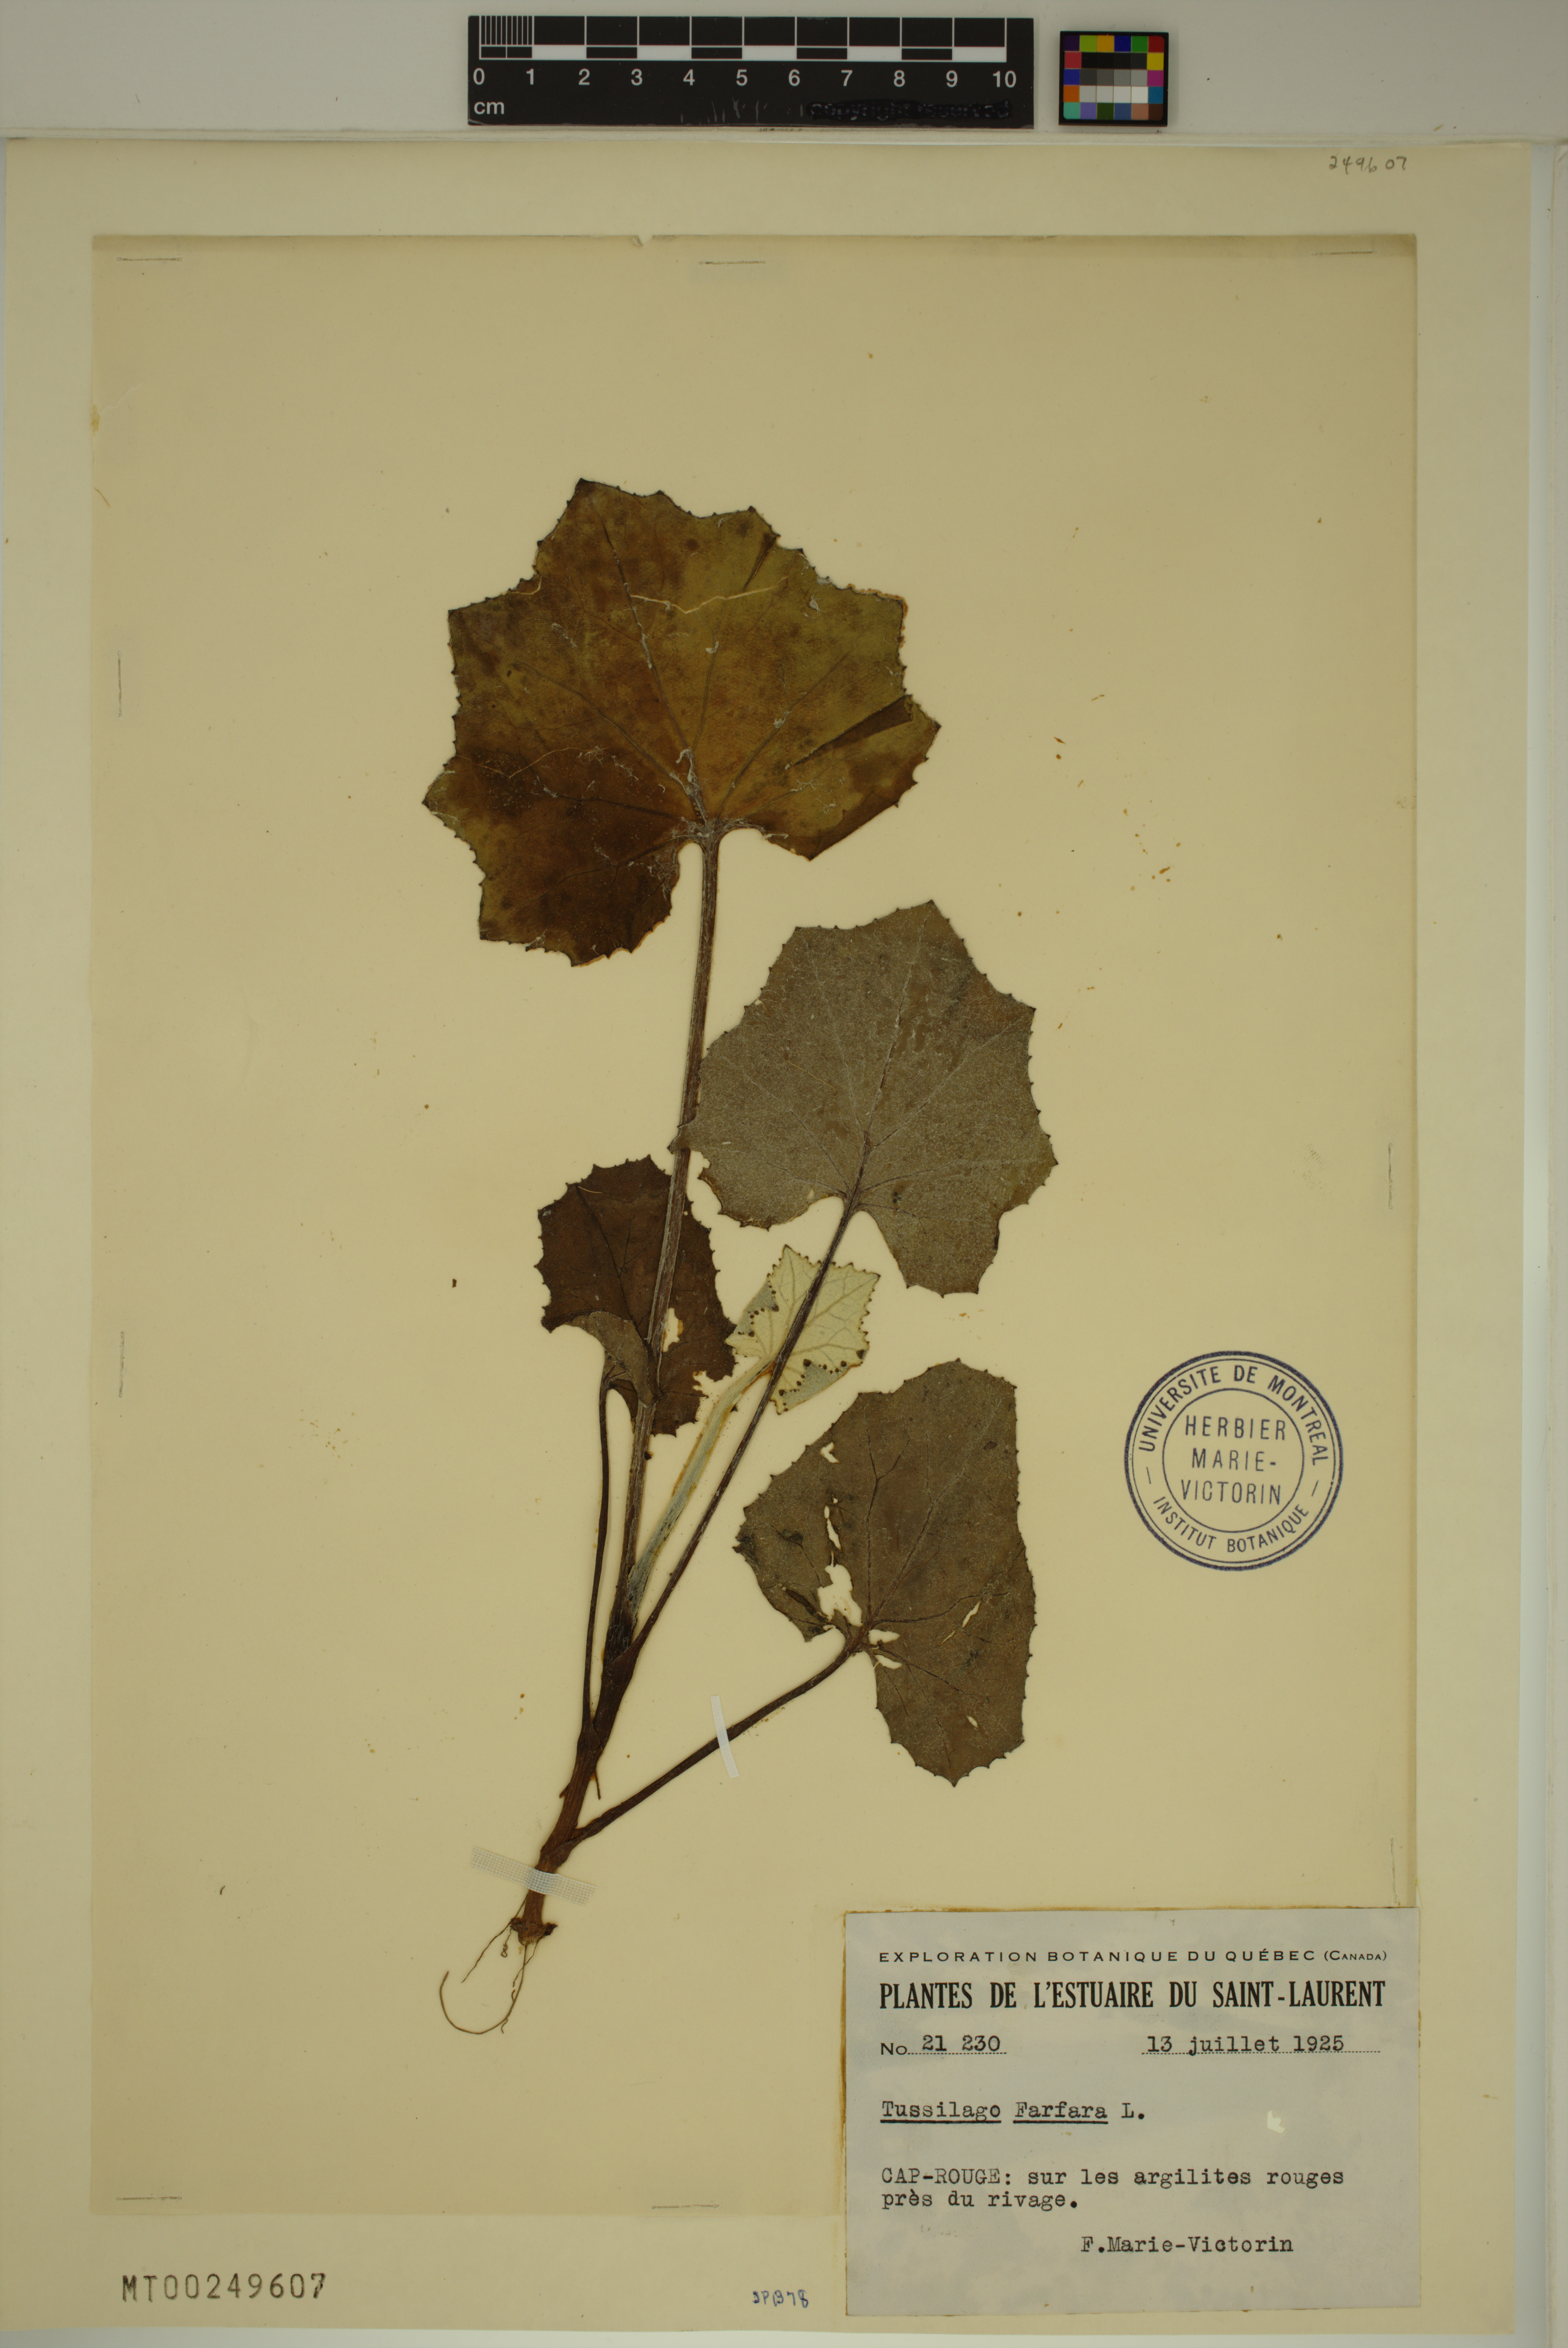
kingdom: Plantae
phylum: Tracheophyta
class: Magnoliopsida
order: Asterales
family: Asteraceae
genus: Tussilago
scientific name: Tussilago farfara
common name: Coltsfoot
